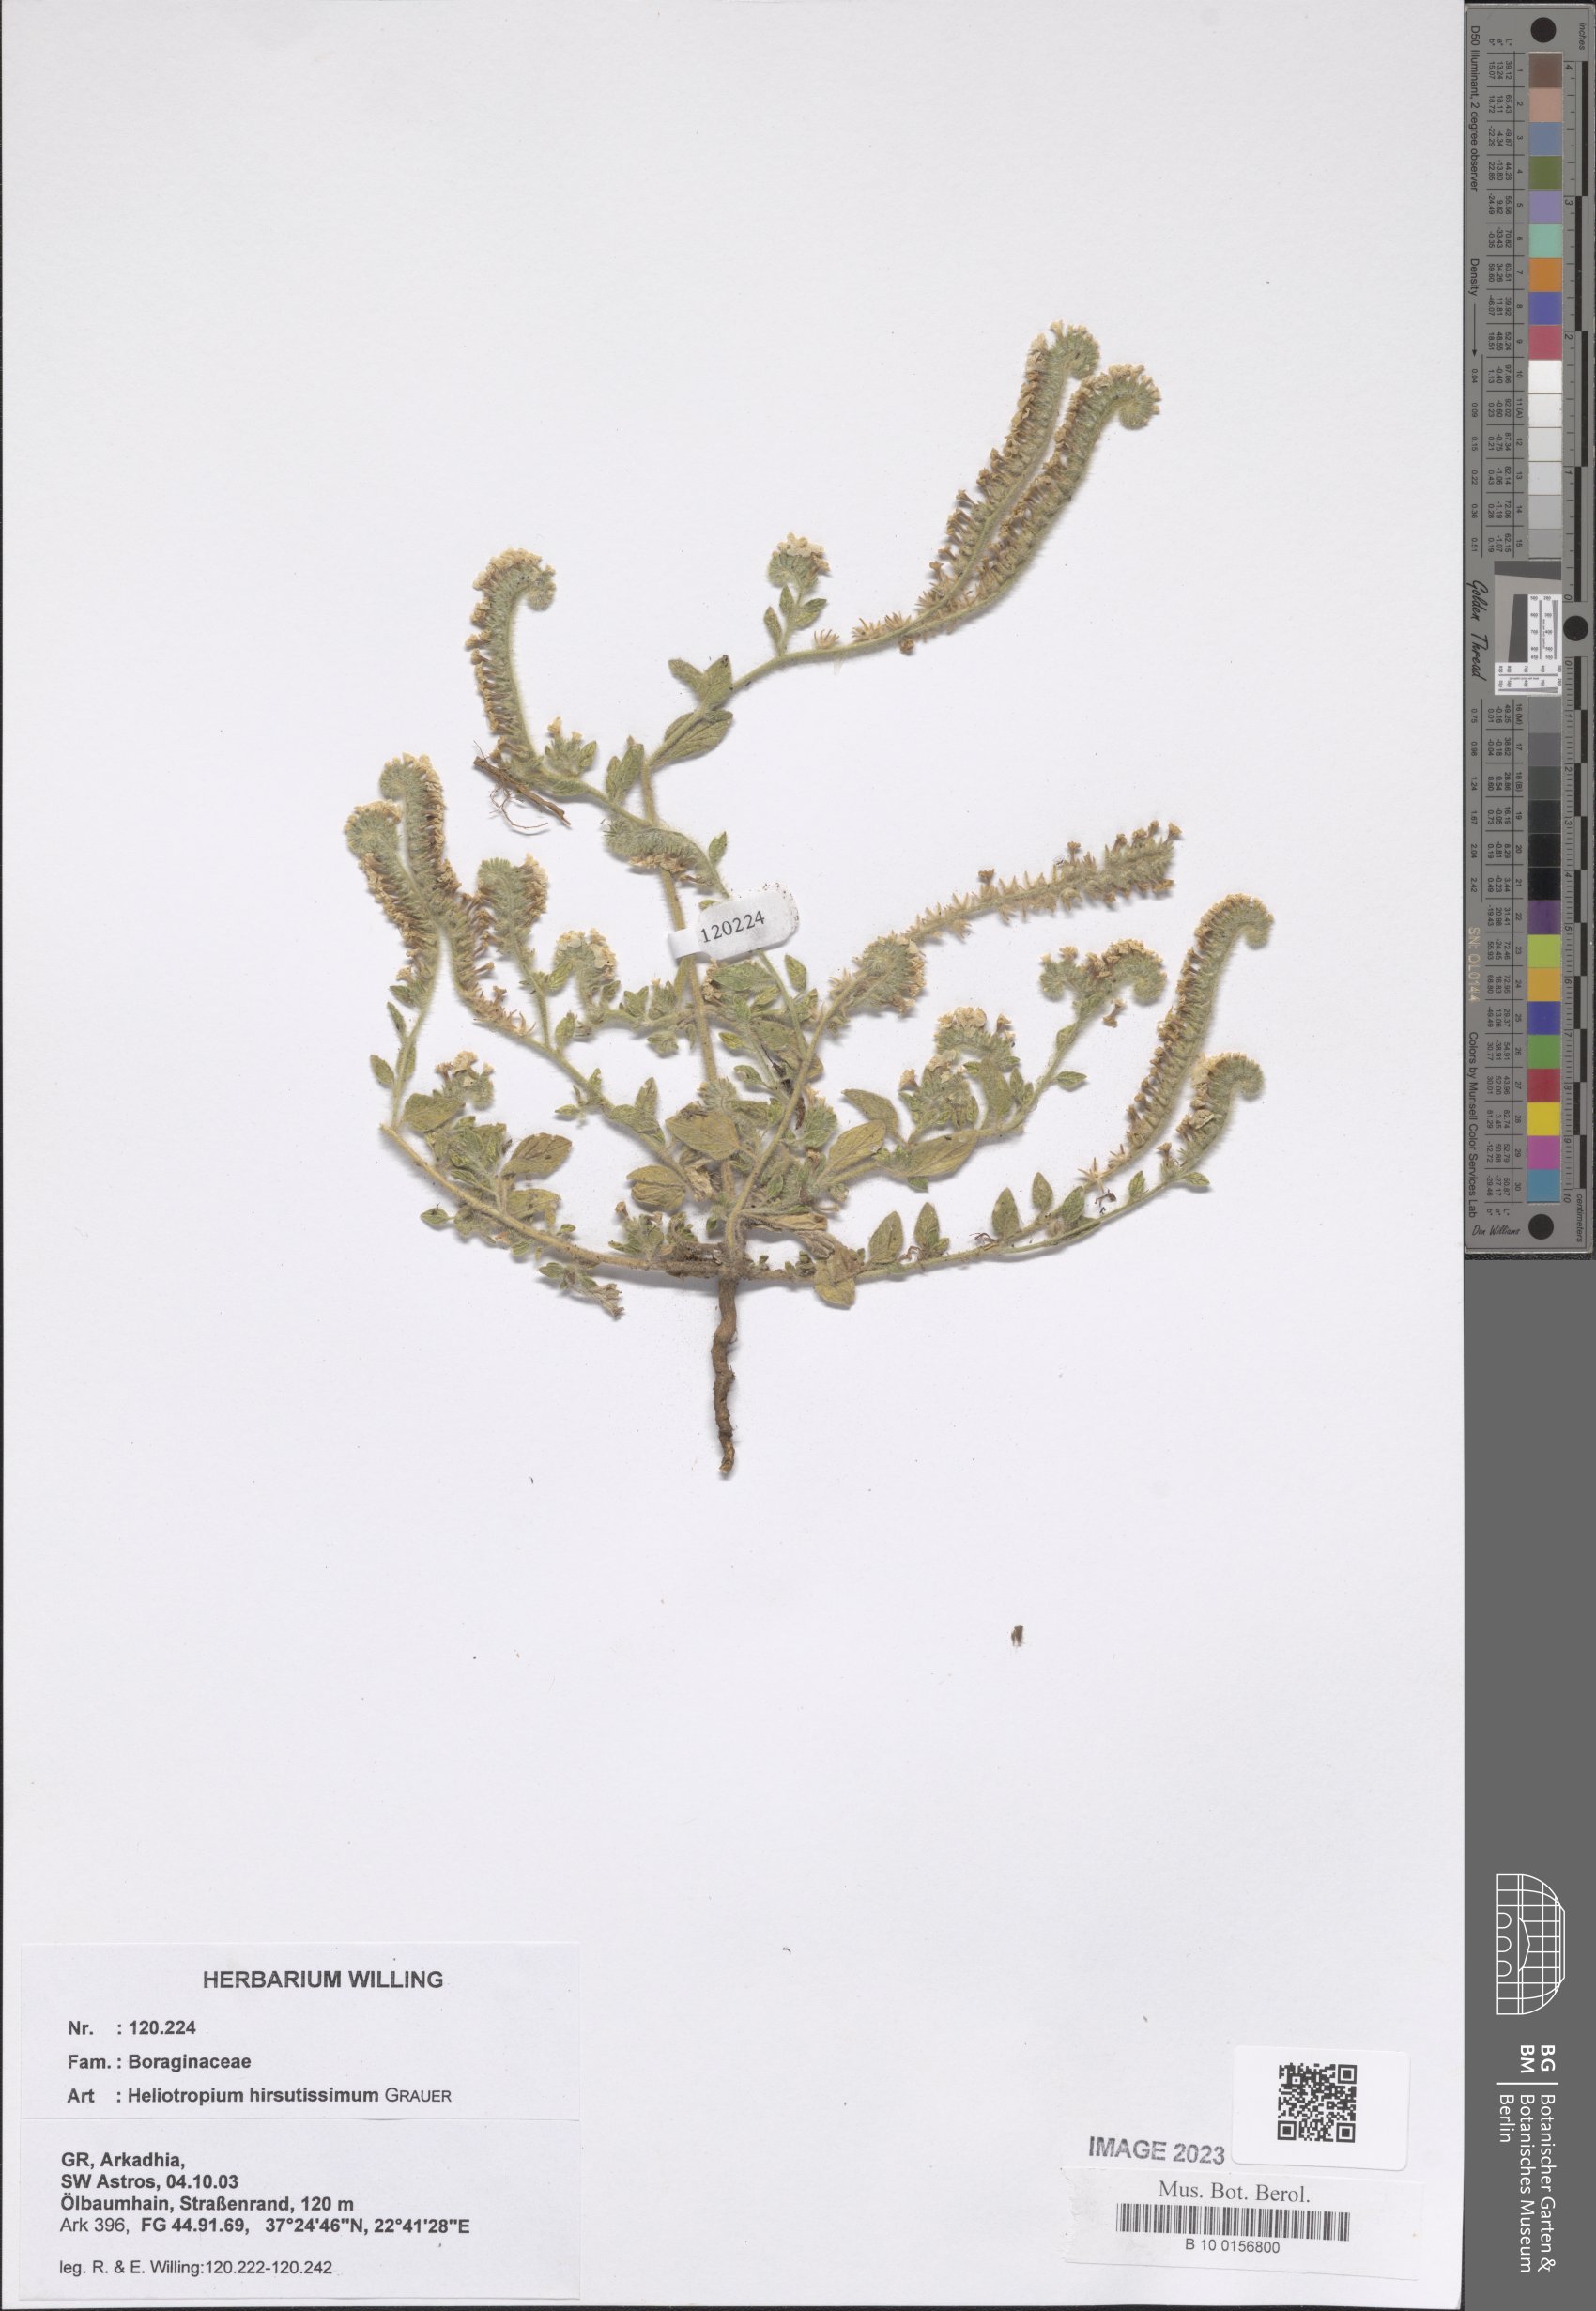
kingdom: Plantae
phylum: Tracheophyta
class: Magnoliopsida
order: Boraginales
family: Heliotropiaceae
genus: Heliotropium
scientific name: Heliotropium hirsutissimum
